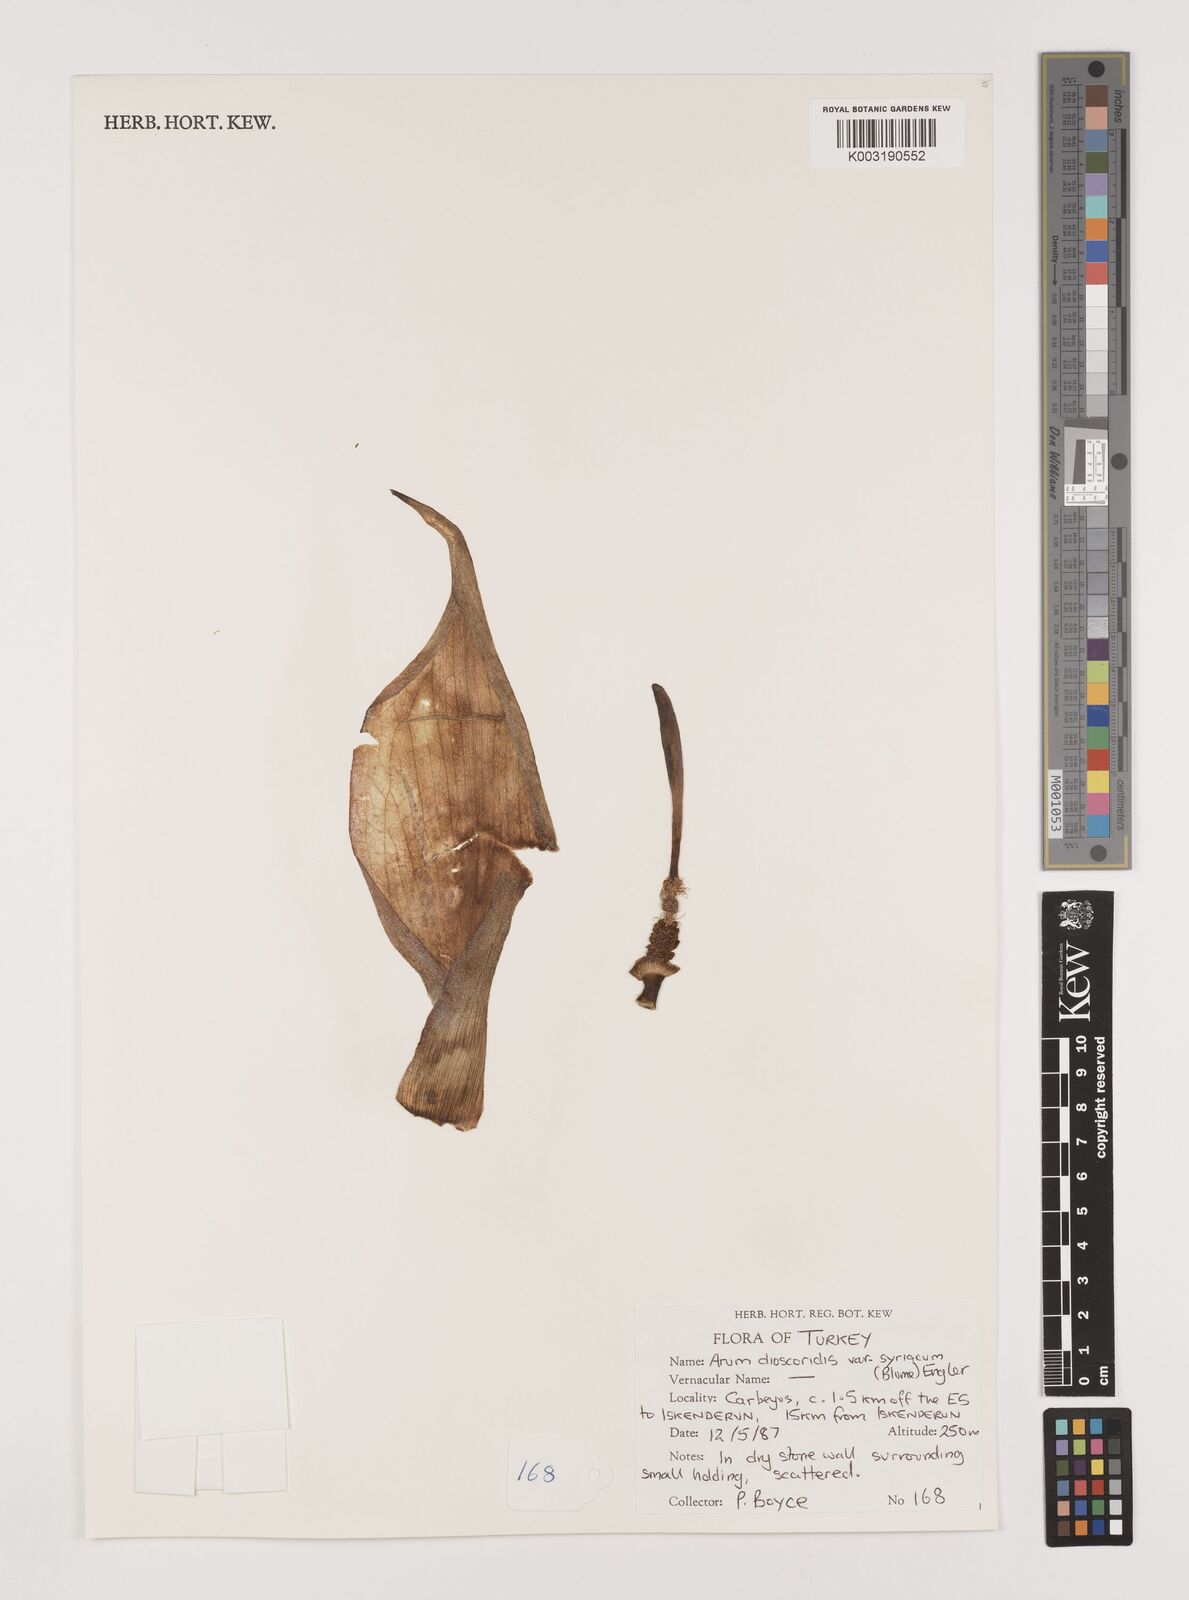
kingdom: Plantae
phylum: Tracheophyta
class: Liliopsida
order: Alismatales
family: Araceae
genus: Arum
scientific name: Arum dioscoridis
